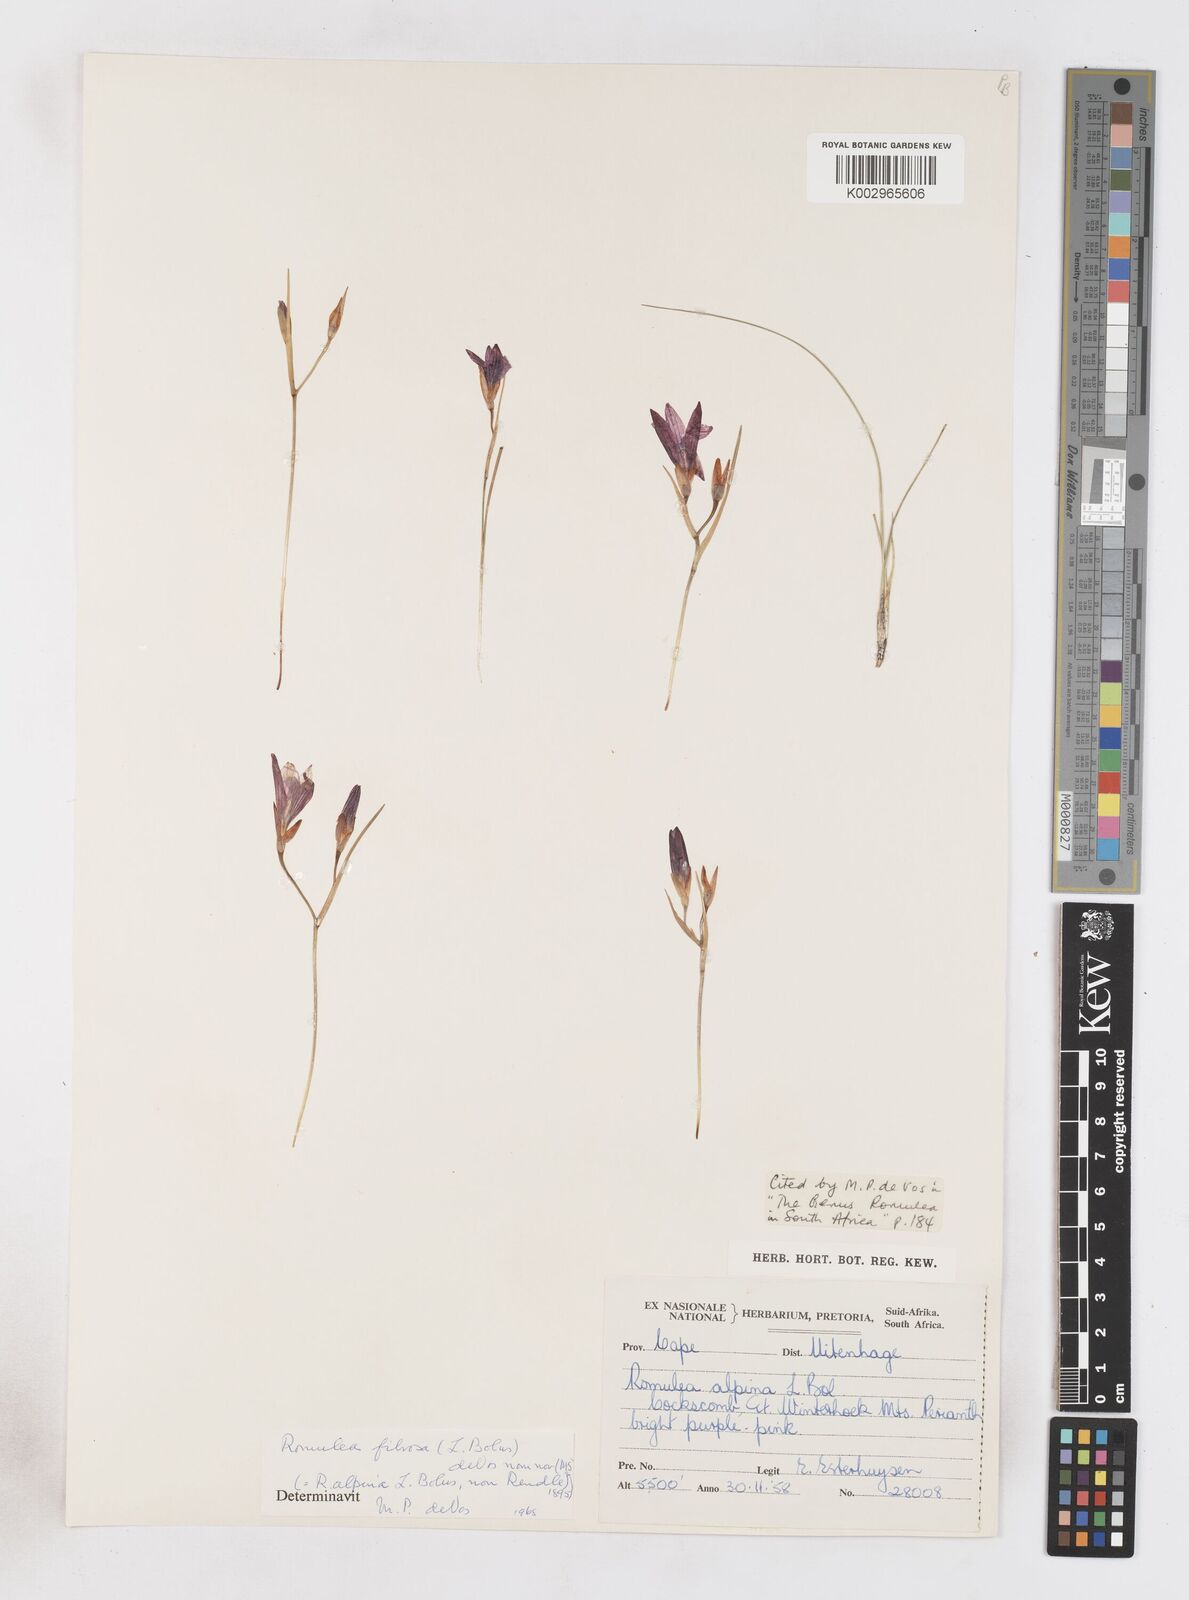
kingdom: Plantae
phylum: Tracheophyta
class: Liliopsida
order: Asparagales
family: Iridaceae
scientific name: Iridaceae
